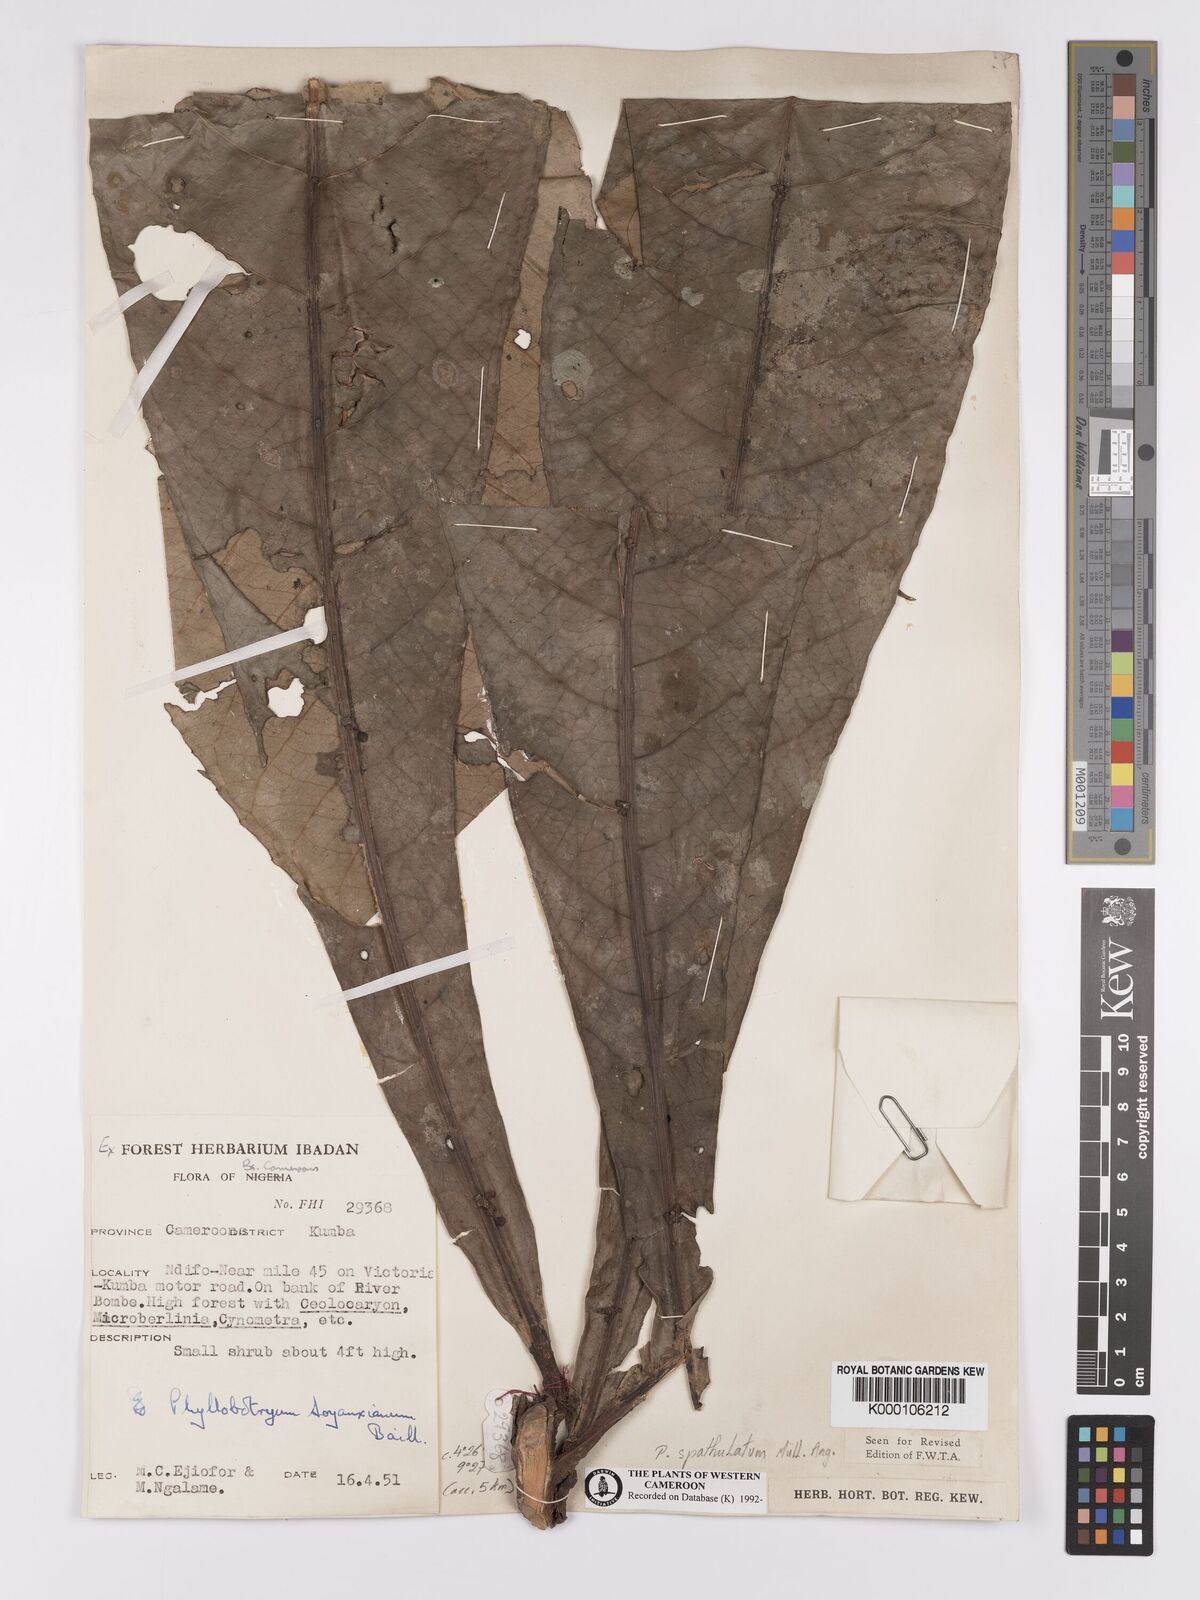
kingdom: Plantae
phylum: Tracheophyta
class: Magnoliopsida
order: Malpighiales
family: Salicaceae
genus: Phyllobotryon
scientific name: Phyllobotryon
